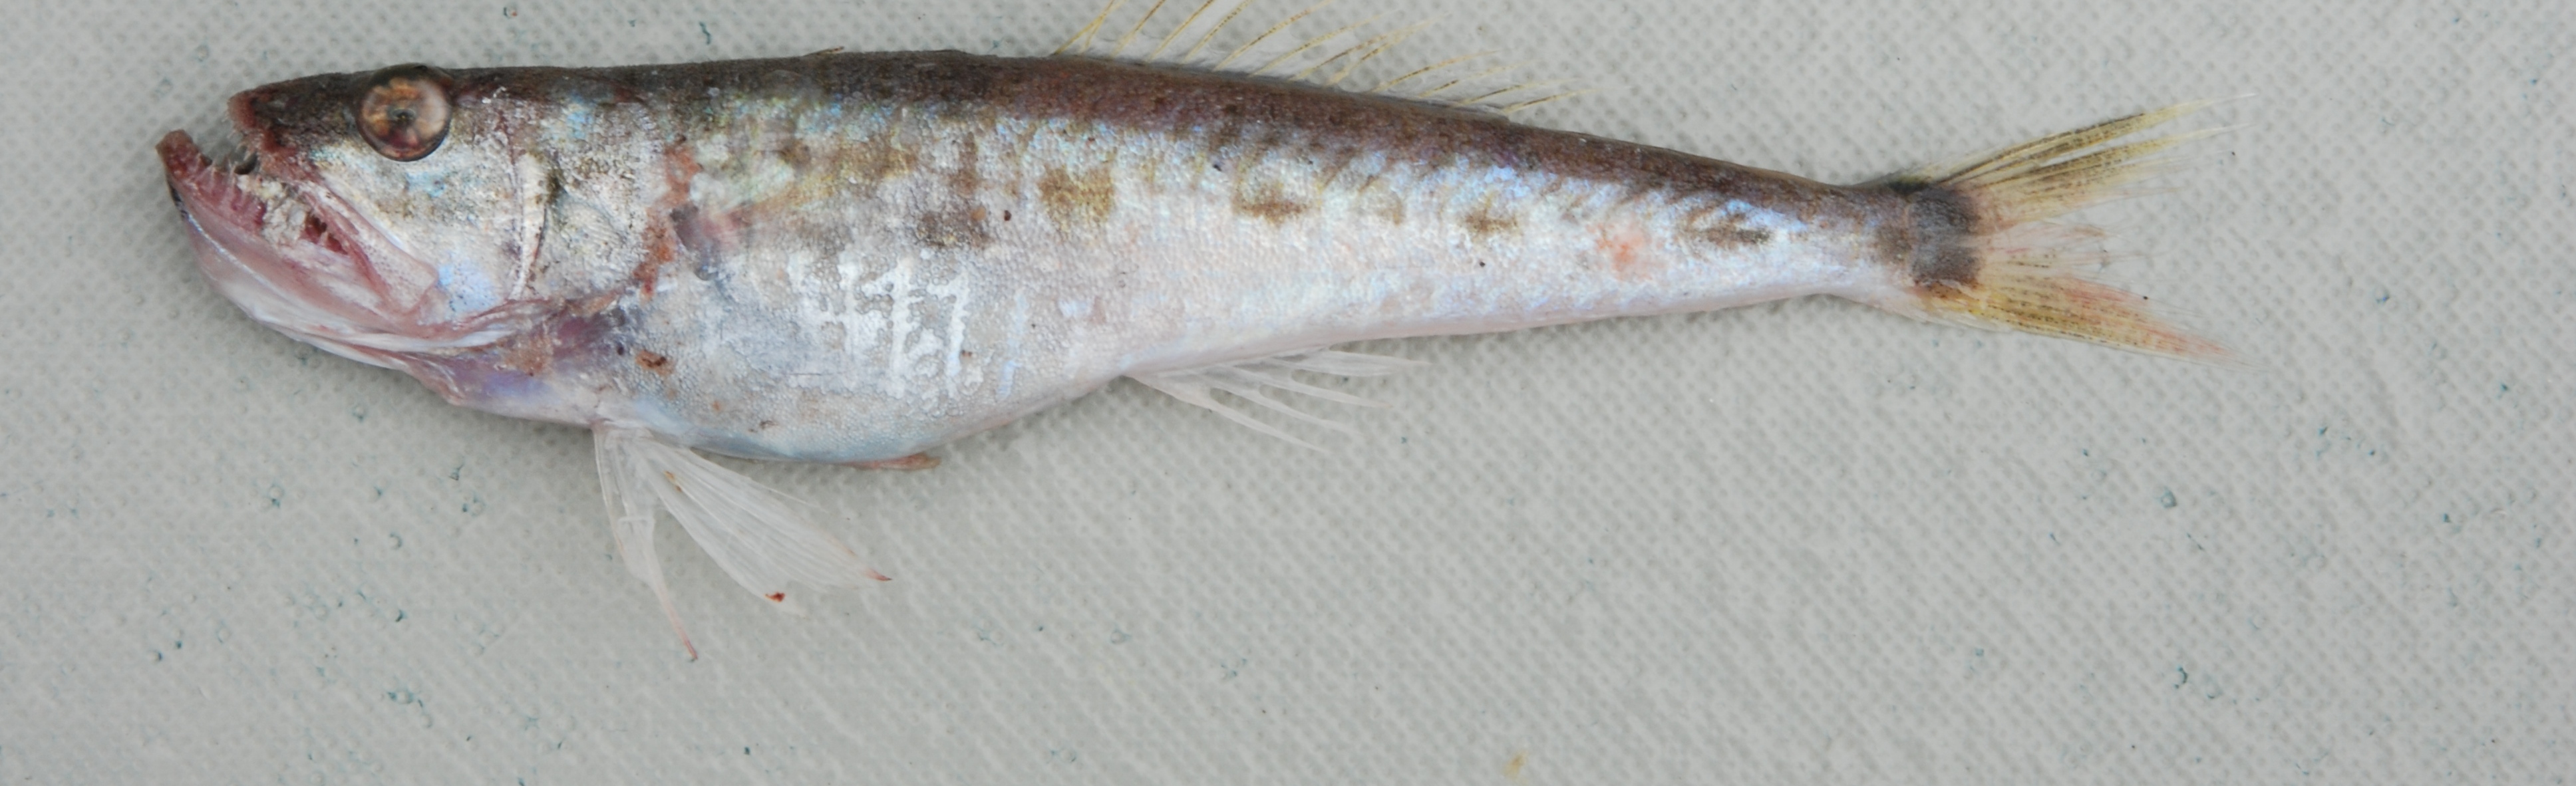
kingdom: Animalia
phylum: Chordata
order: Perciformes
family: Champsodontidae
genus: Champsodon
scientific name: Champsodon capensis
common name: Gaper
